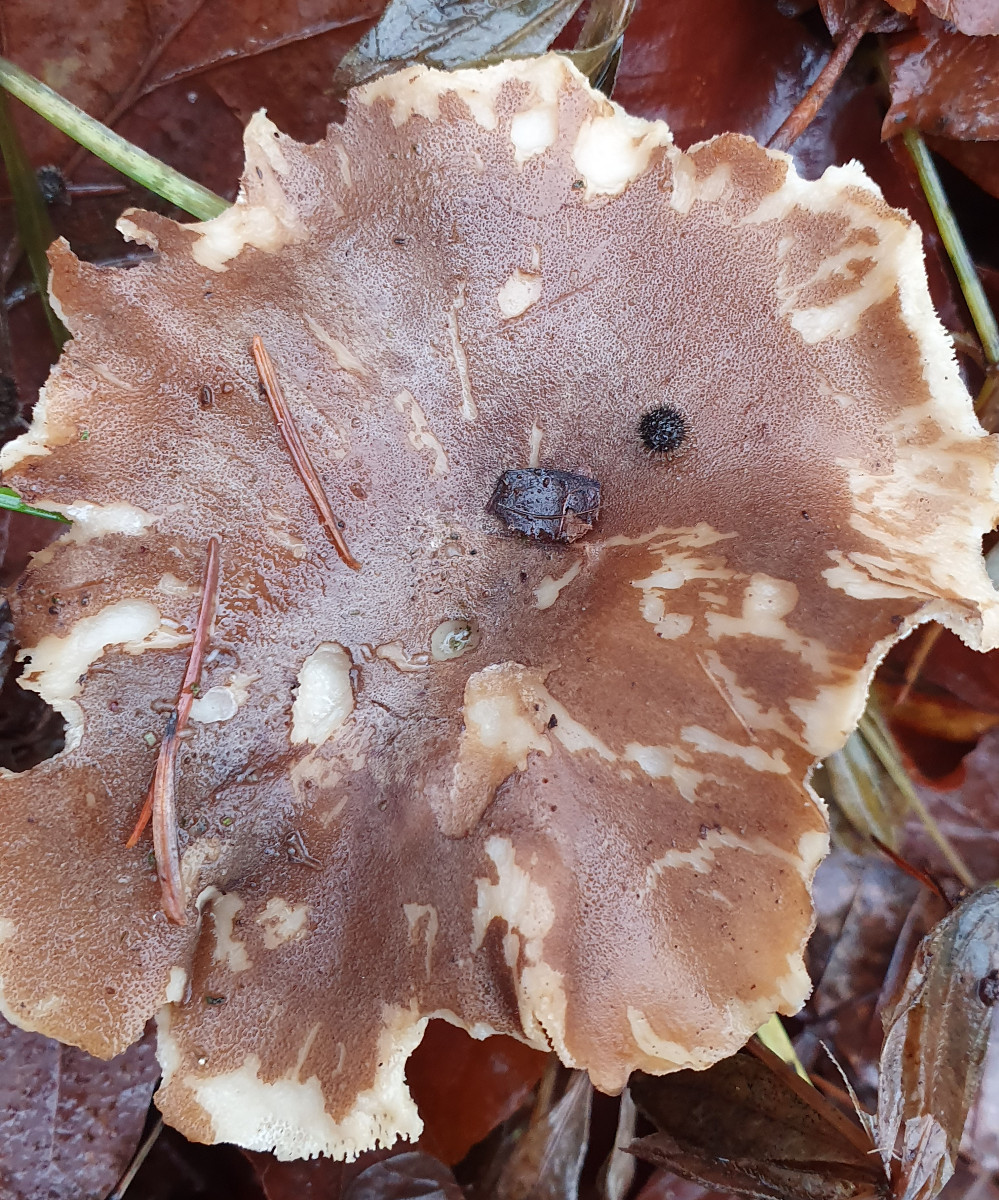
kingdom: Fungi
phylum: Basidiomycota
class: Agaricomycetes
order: Polyporales
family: Polyporaceae
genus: Lentinus
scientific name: Lentinus brumalis
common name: vinter-stilkporesvamp
